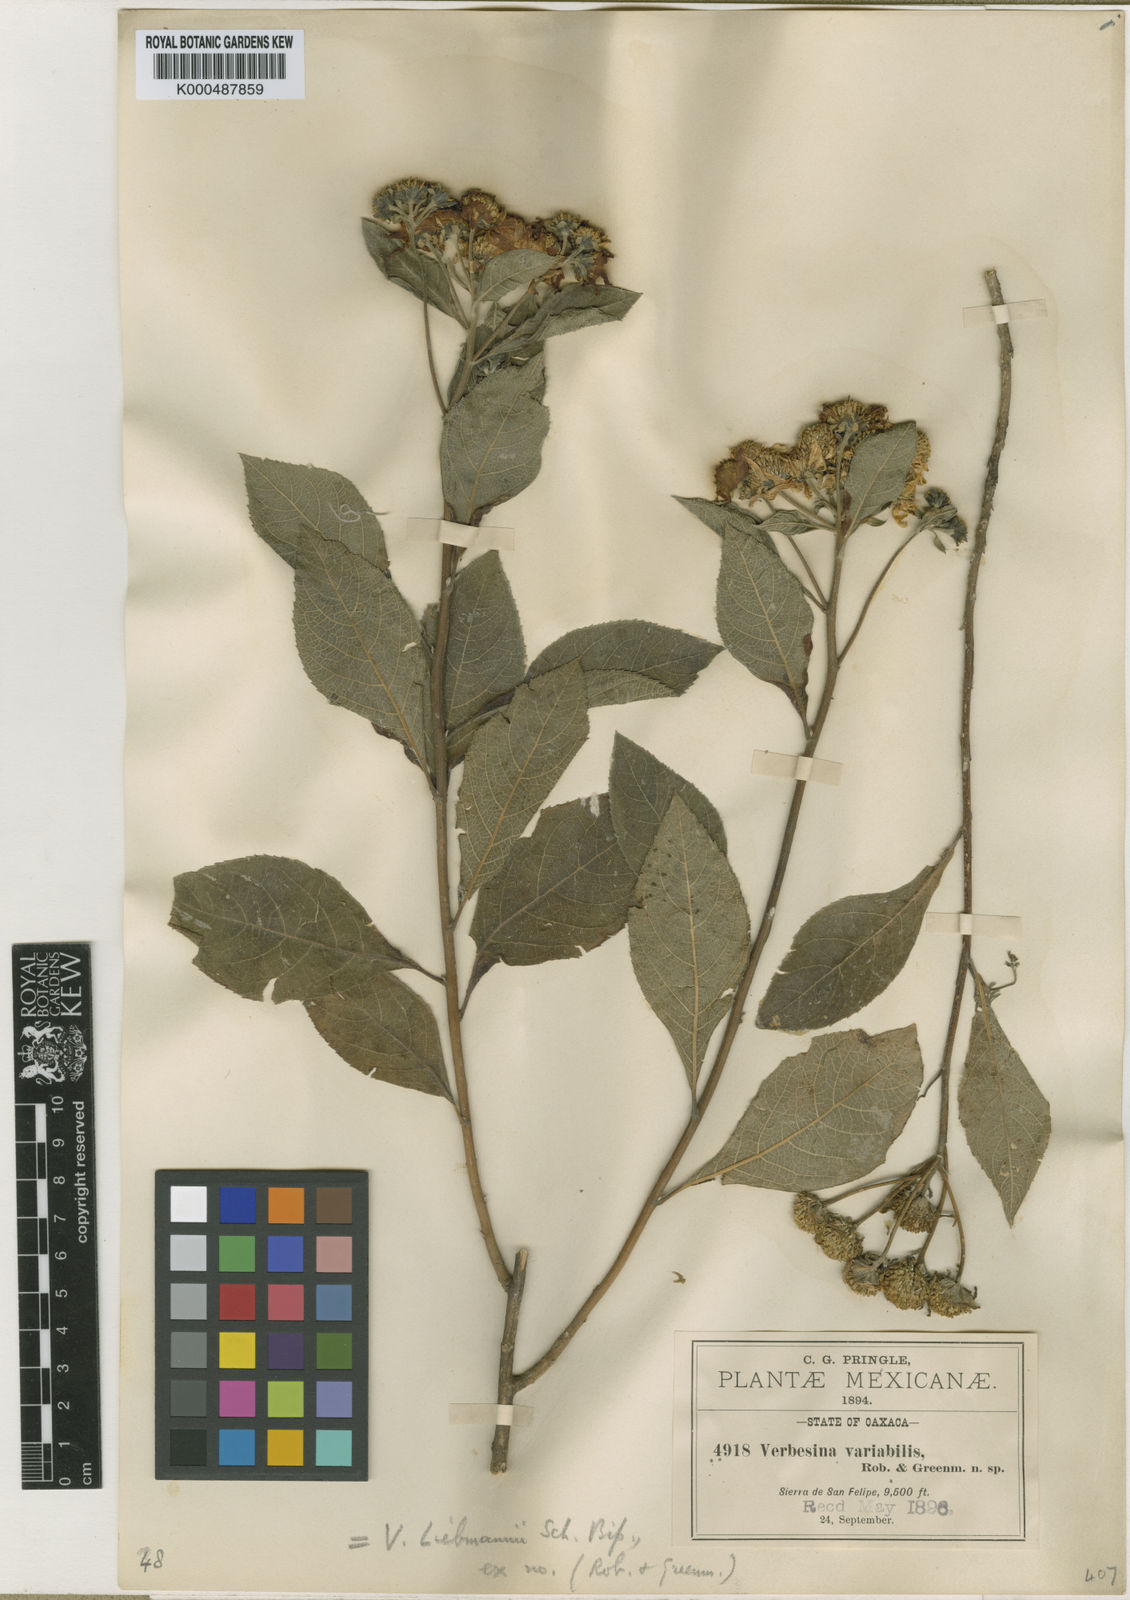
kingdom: Plantae
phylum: Tracheophyta
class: Magnoliopsida
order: Asterales
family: Asteraceae
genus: Verbesina
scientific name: Verbesina
